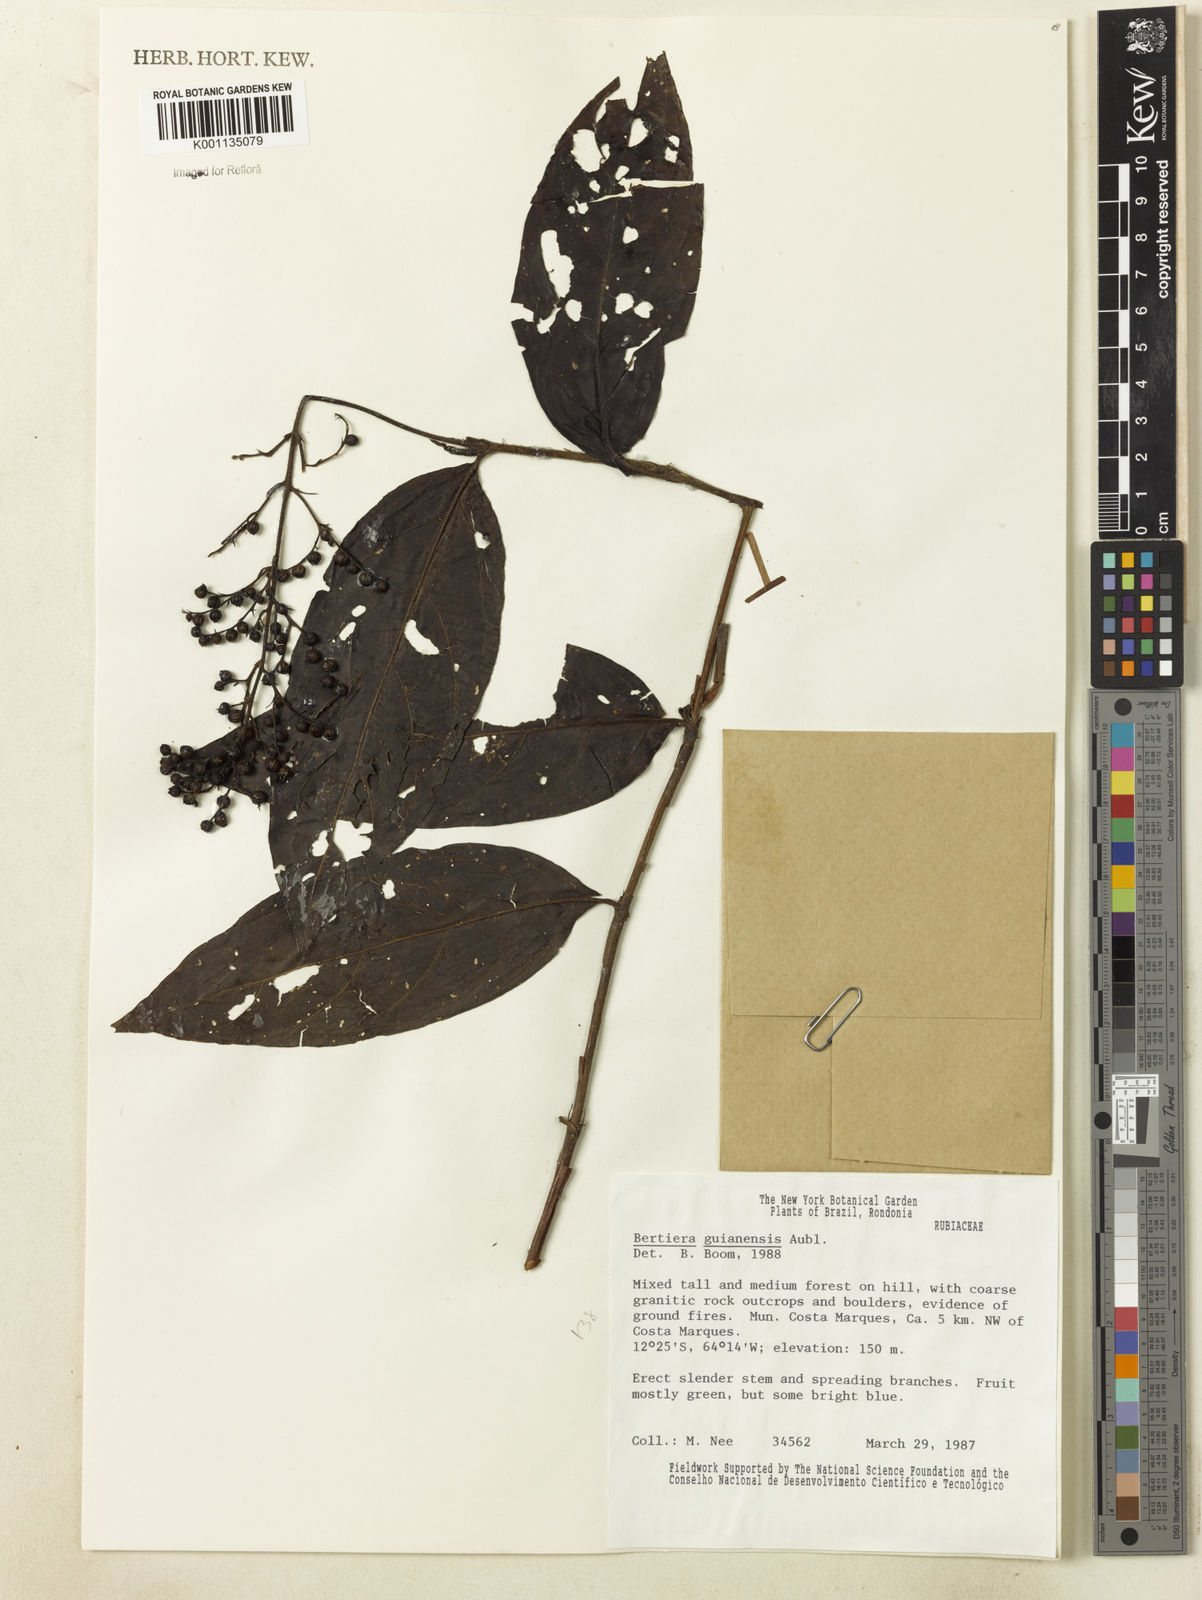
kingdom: Plantae
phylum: Tracheophyta
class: Magnoliopsida
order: Gentianales
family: Rubiaceae
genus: Bertiera
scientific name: Bertiera guianensis
